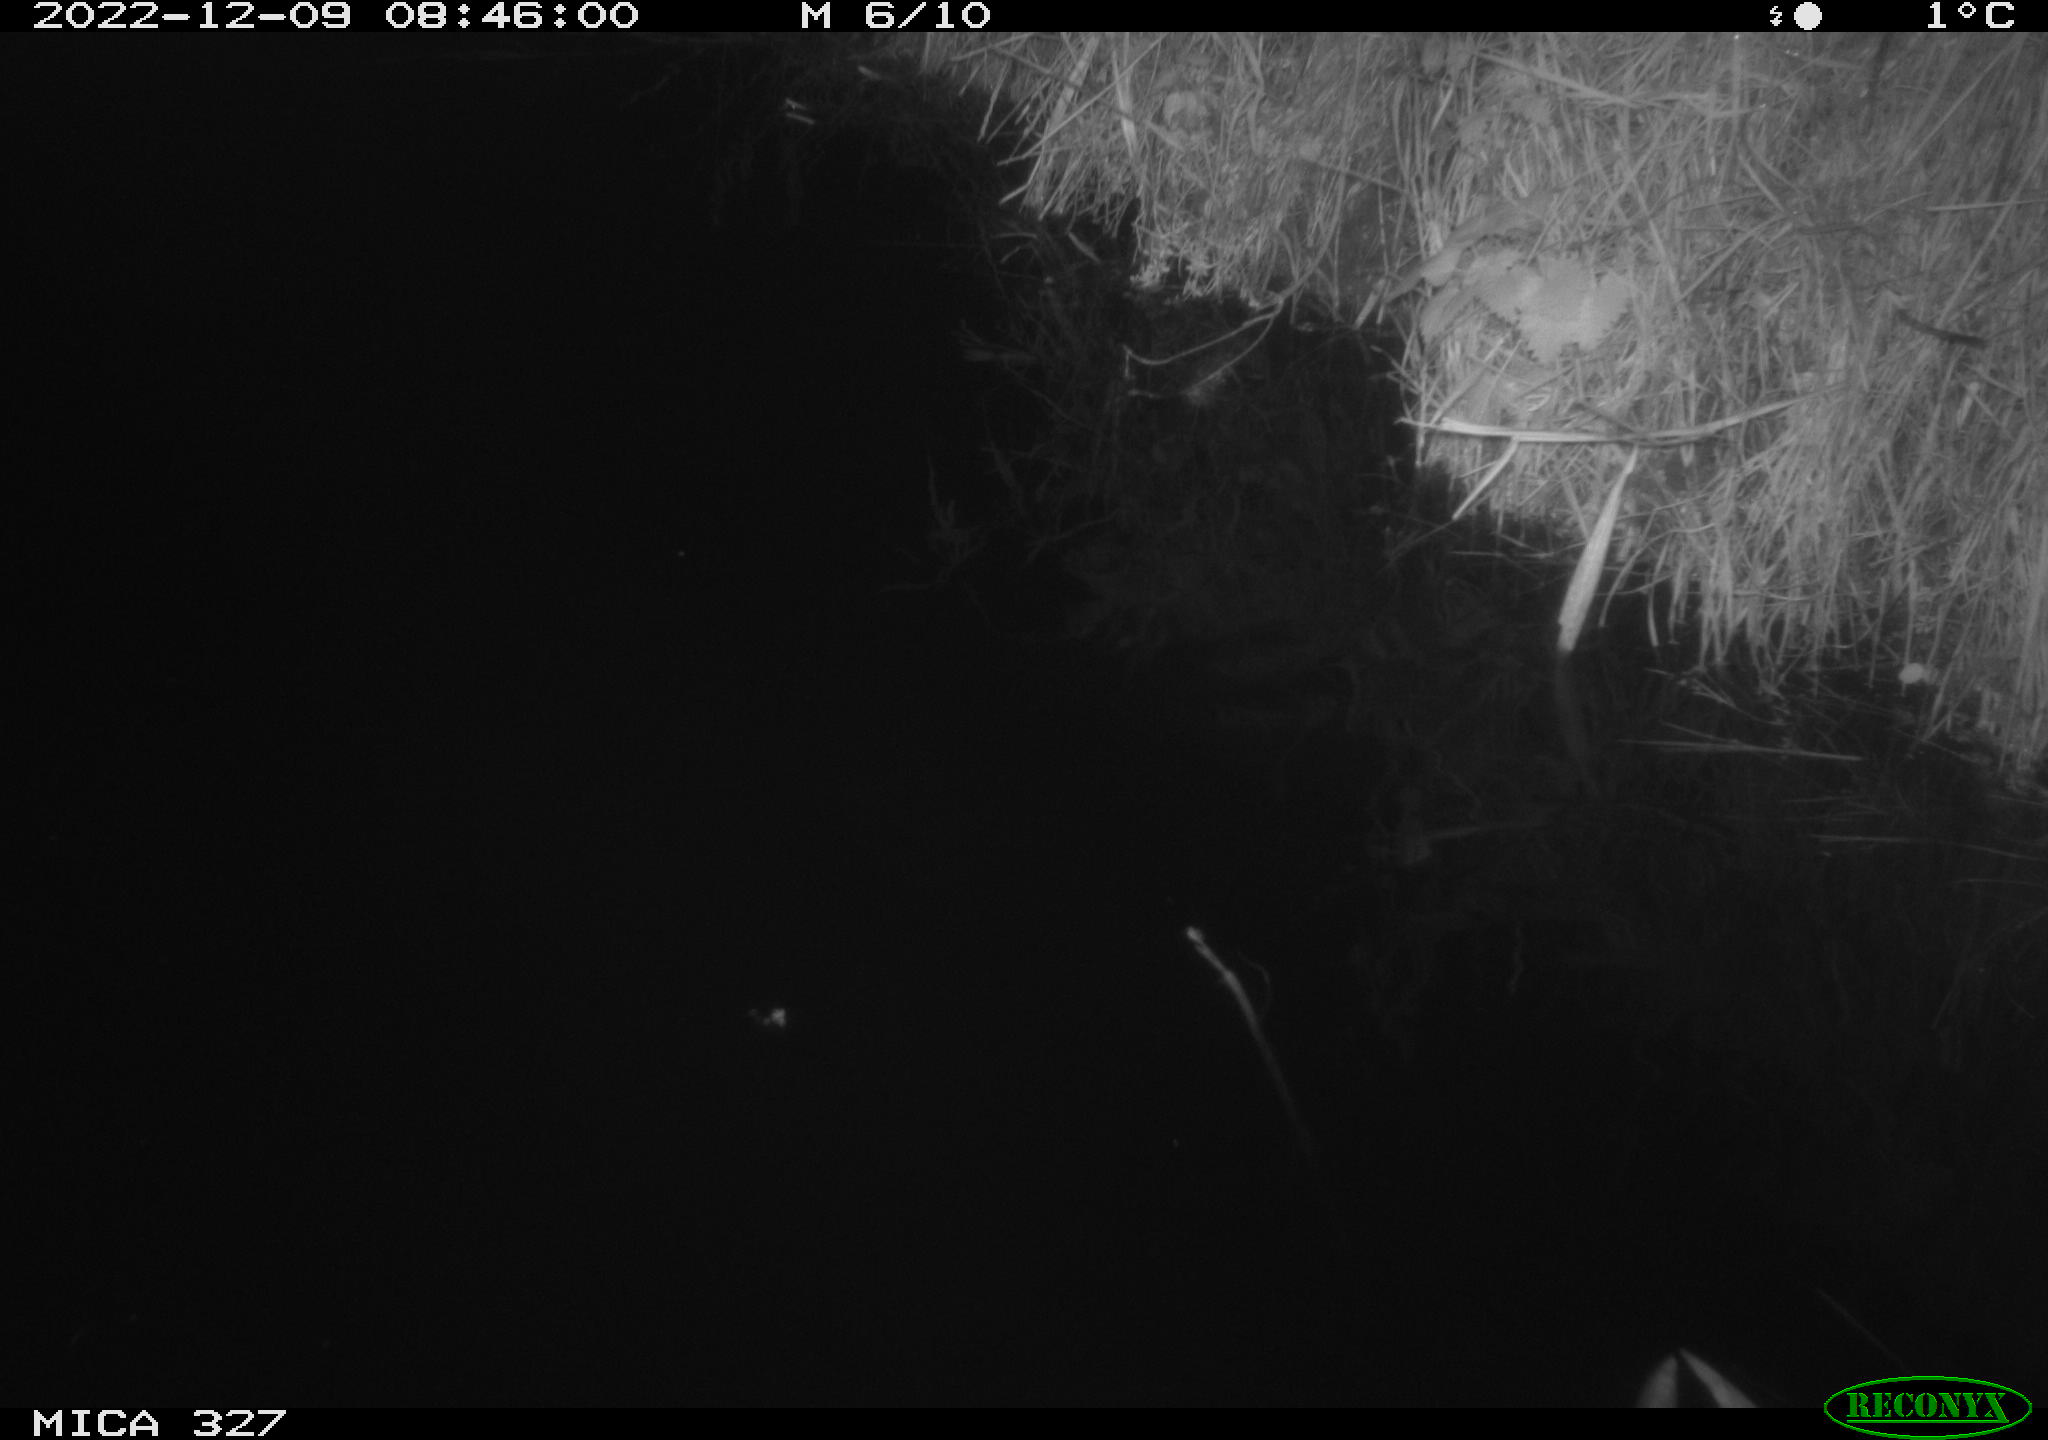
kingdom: Animalia
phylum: Chordata
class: Aves
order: Gruiformes
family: Rallidae
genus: Gallinula
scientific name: Gallinula chloropus
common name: Common moorhen
